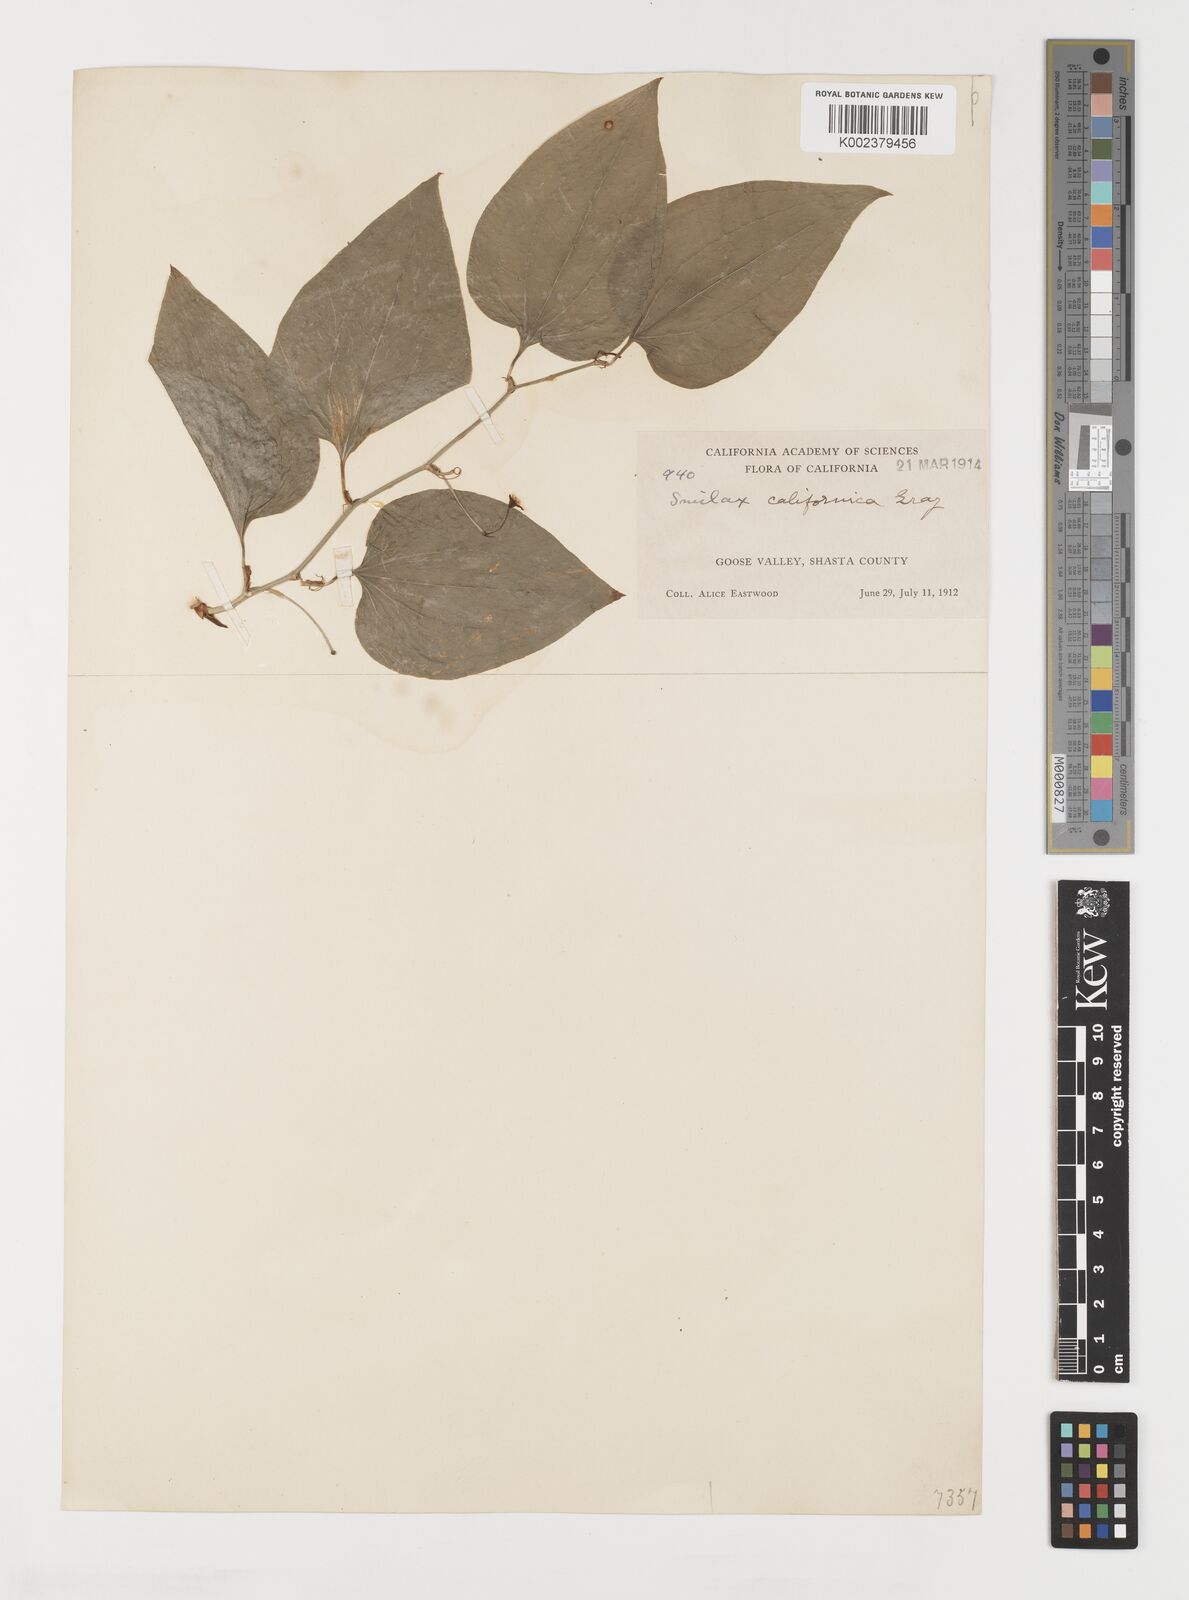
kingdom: Plantae
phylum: Tracheophyta
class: Liliopsida
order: Liliales
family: Smilacaceae
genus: Smilax
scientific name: Smilax californica
